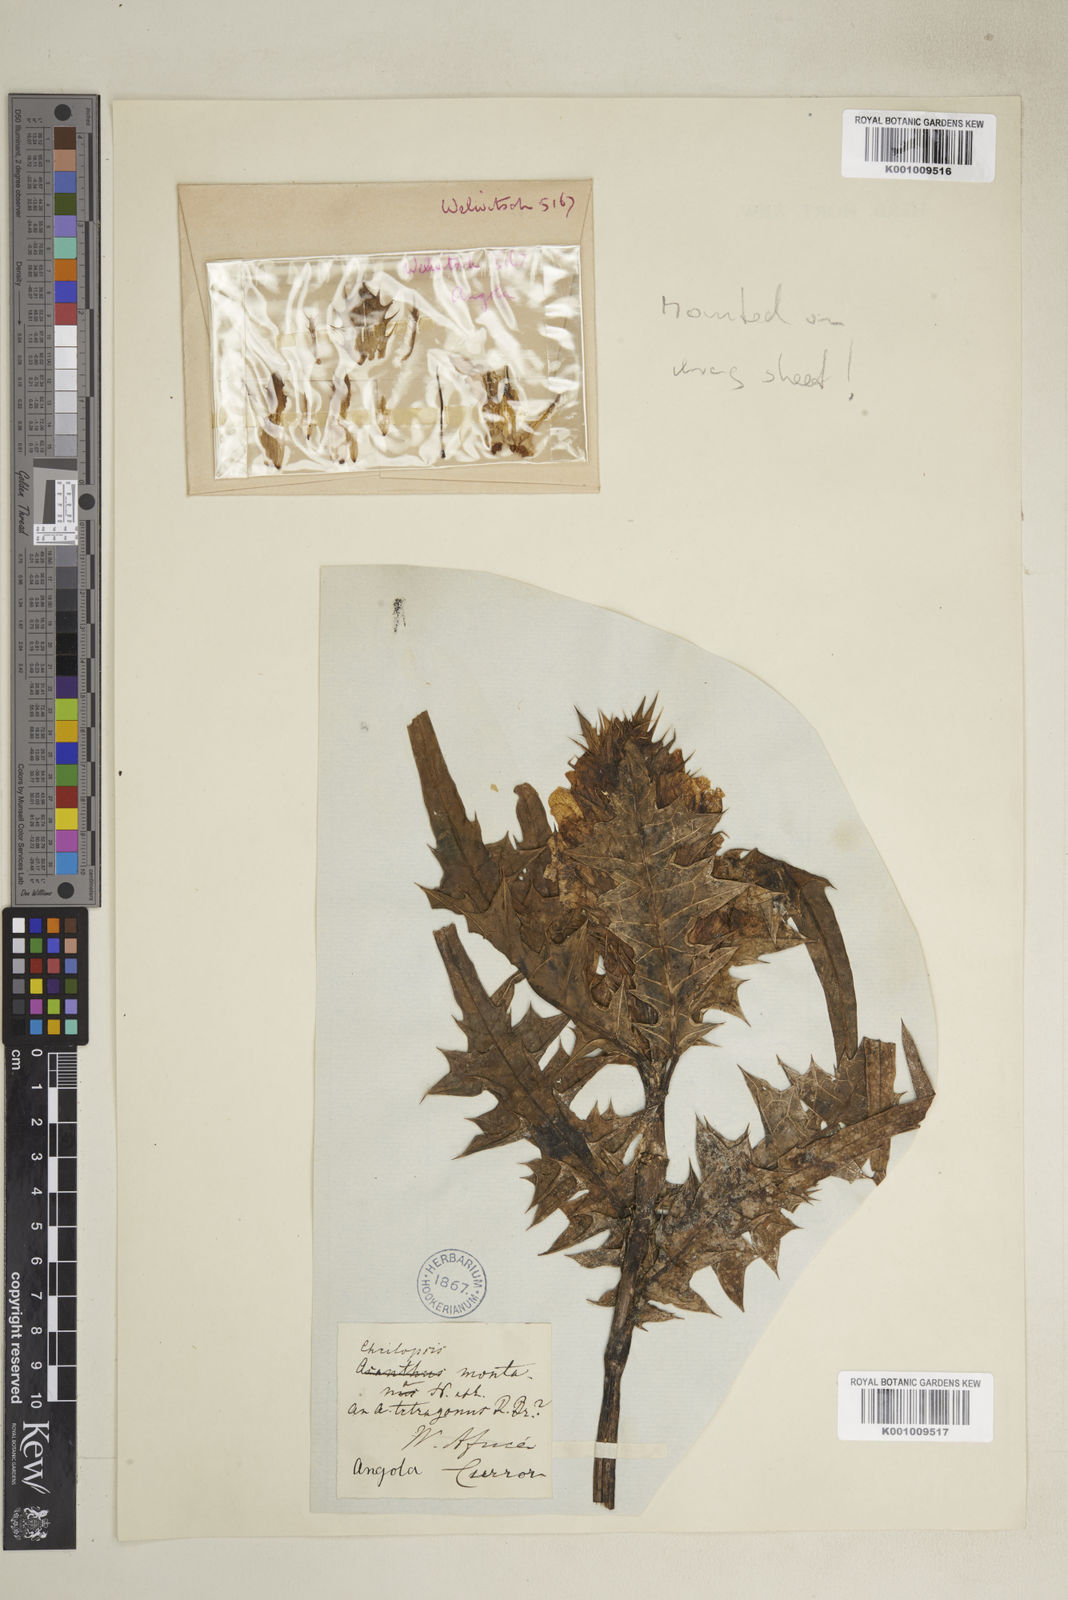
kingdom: Plantae
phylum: Tracheophyta
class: Magnoliopsida
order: Lamiales
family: Acanthaceae
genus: Acanthus
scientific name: Acanthus montanus
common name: Mountain thistle
